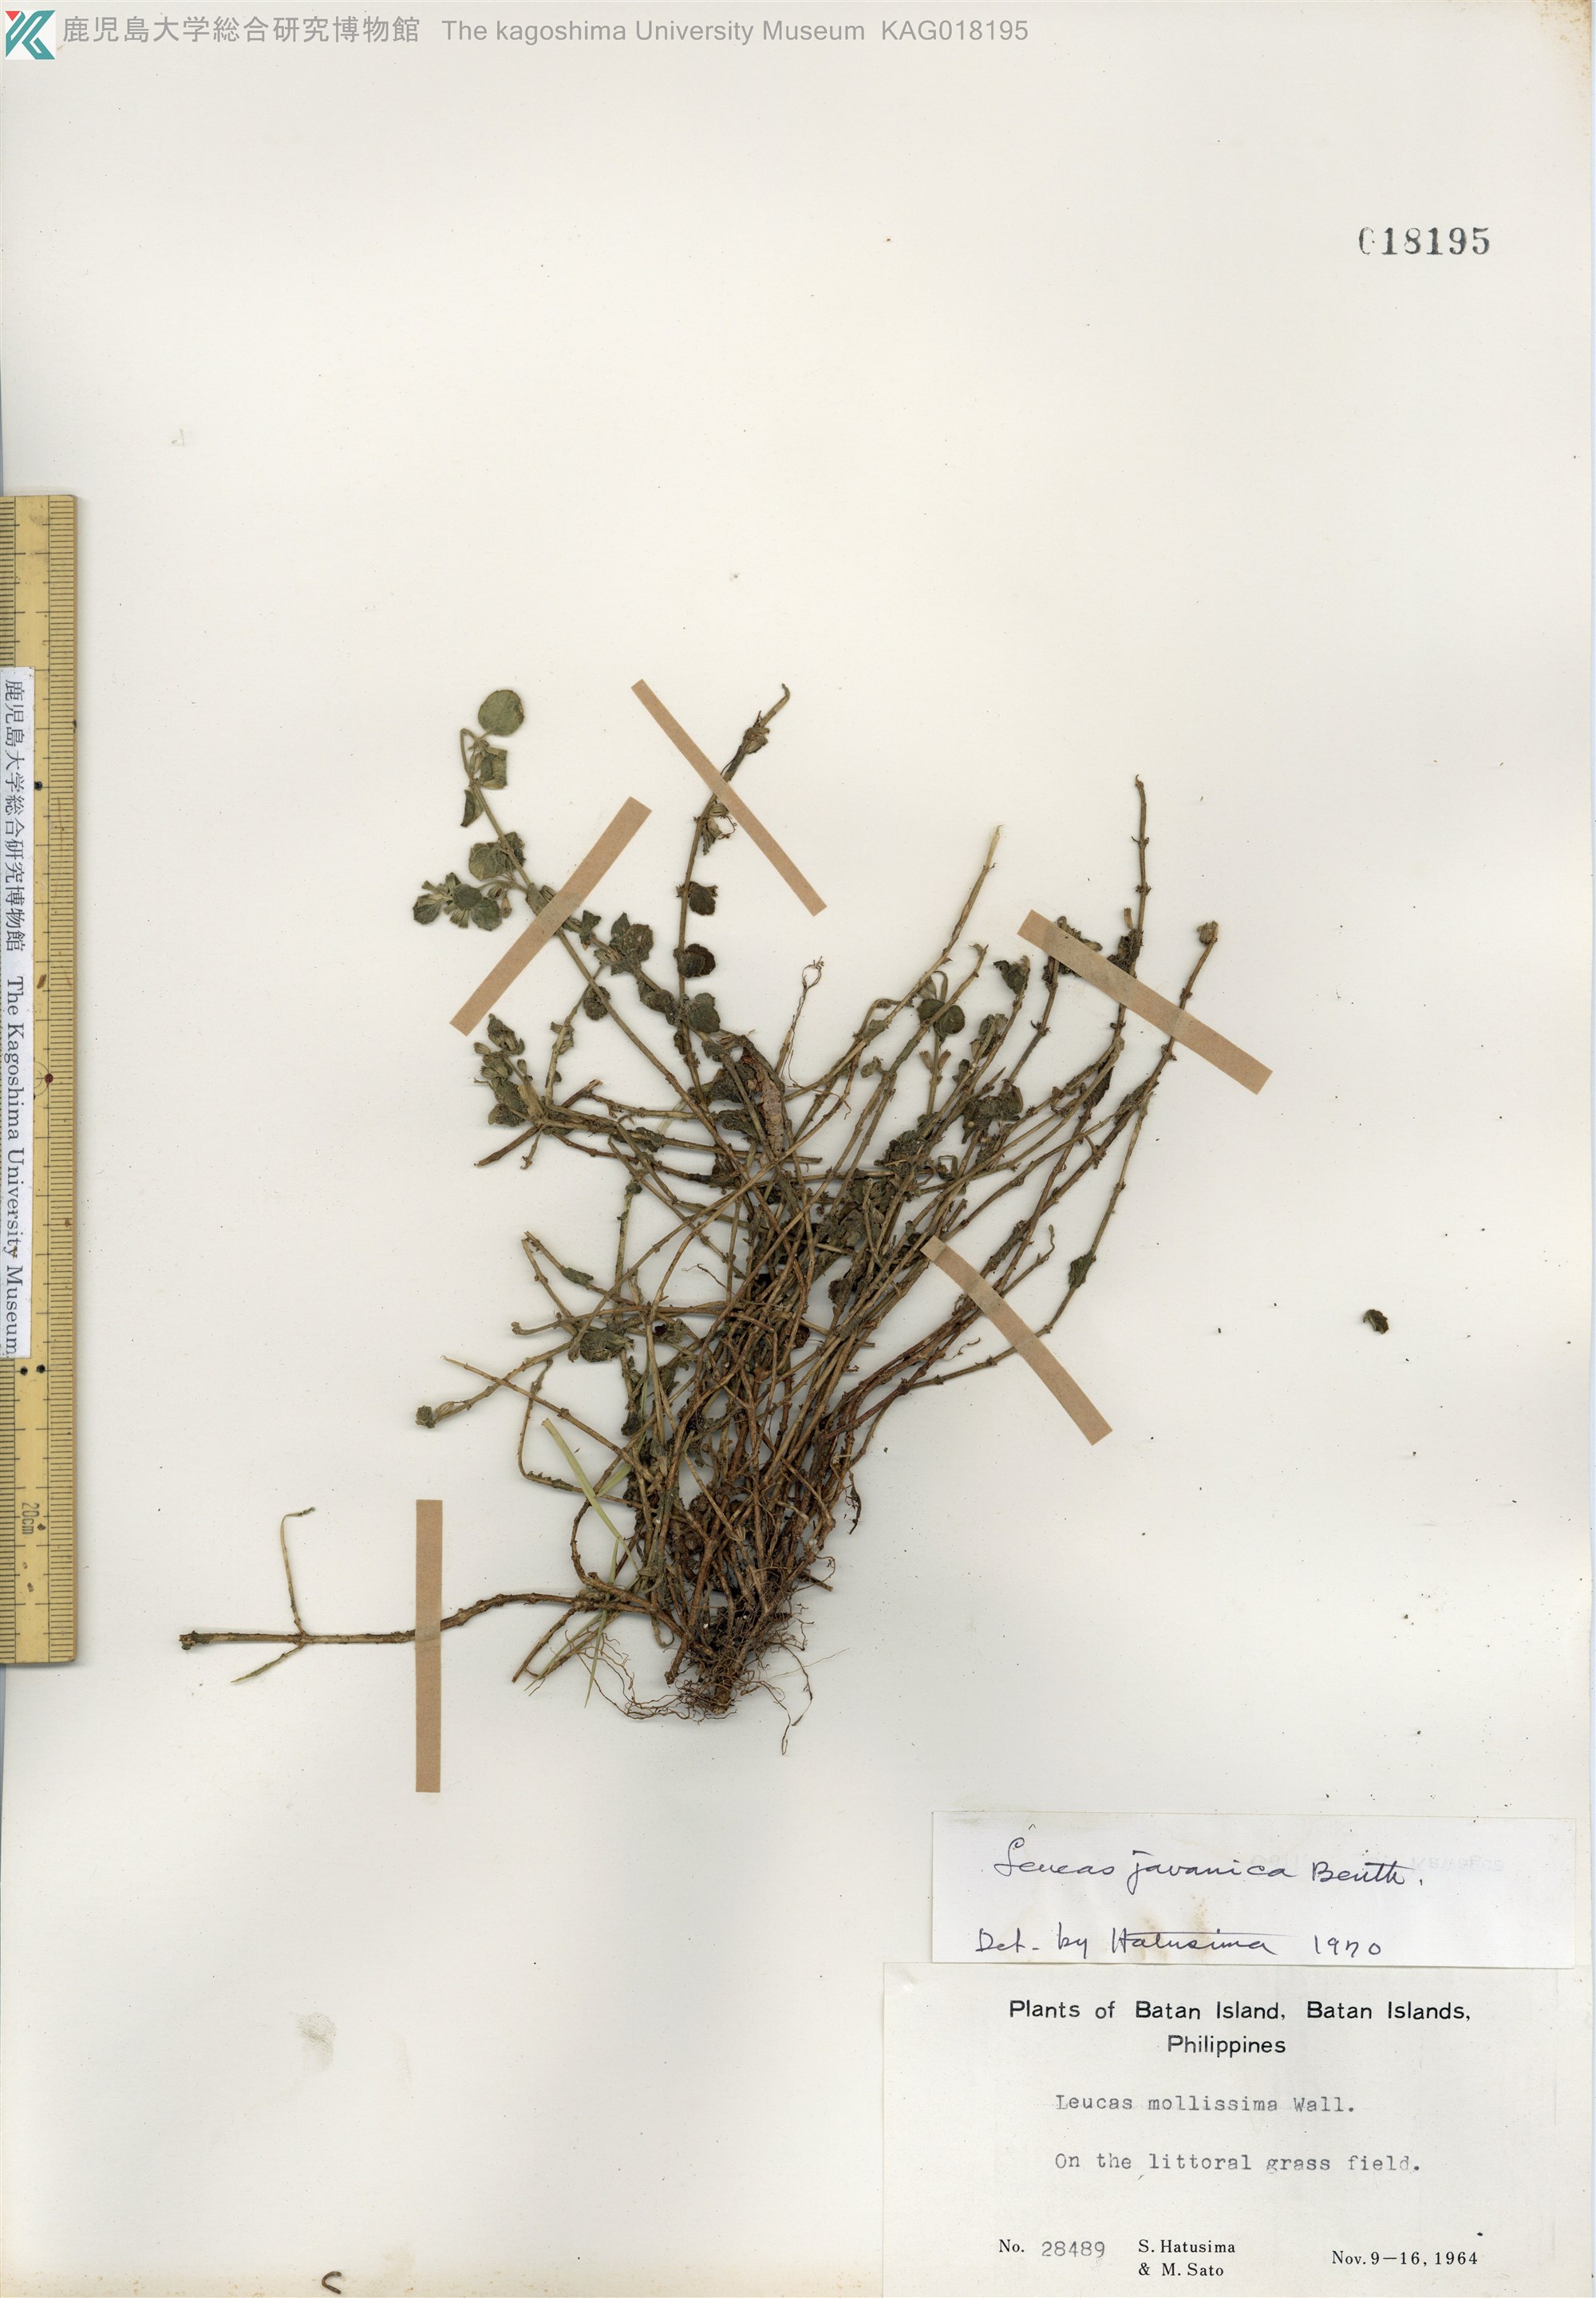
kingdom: Plantae
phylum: Tracheophyta
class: Magnoliopsida
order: Lamiales
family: Lamiaceae
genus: Leucas
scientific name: Leucas chinensis
